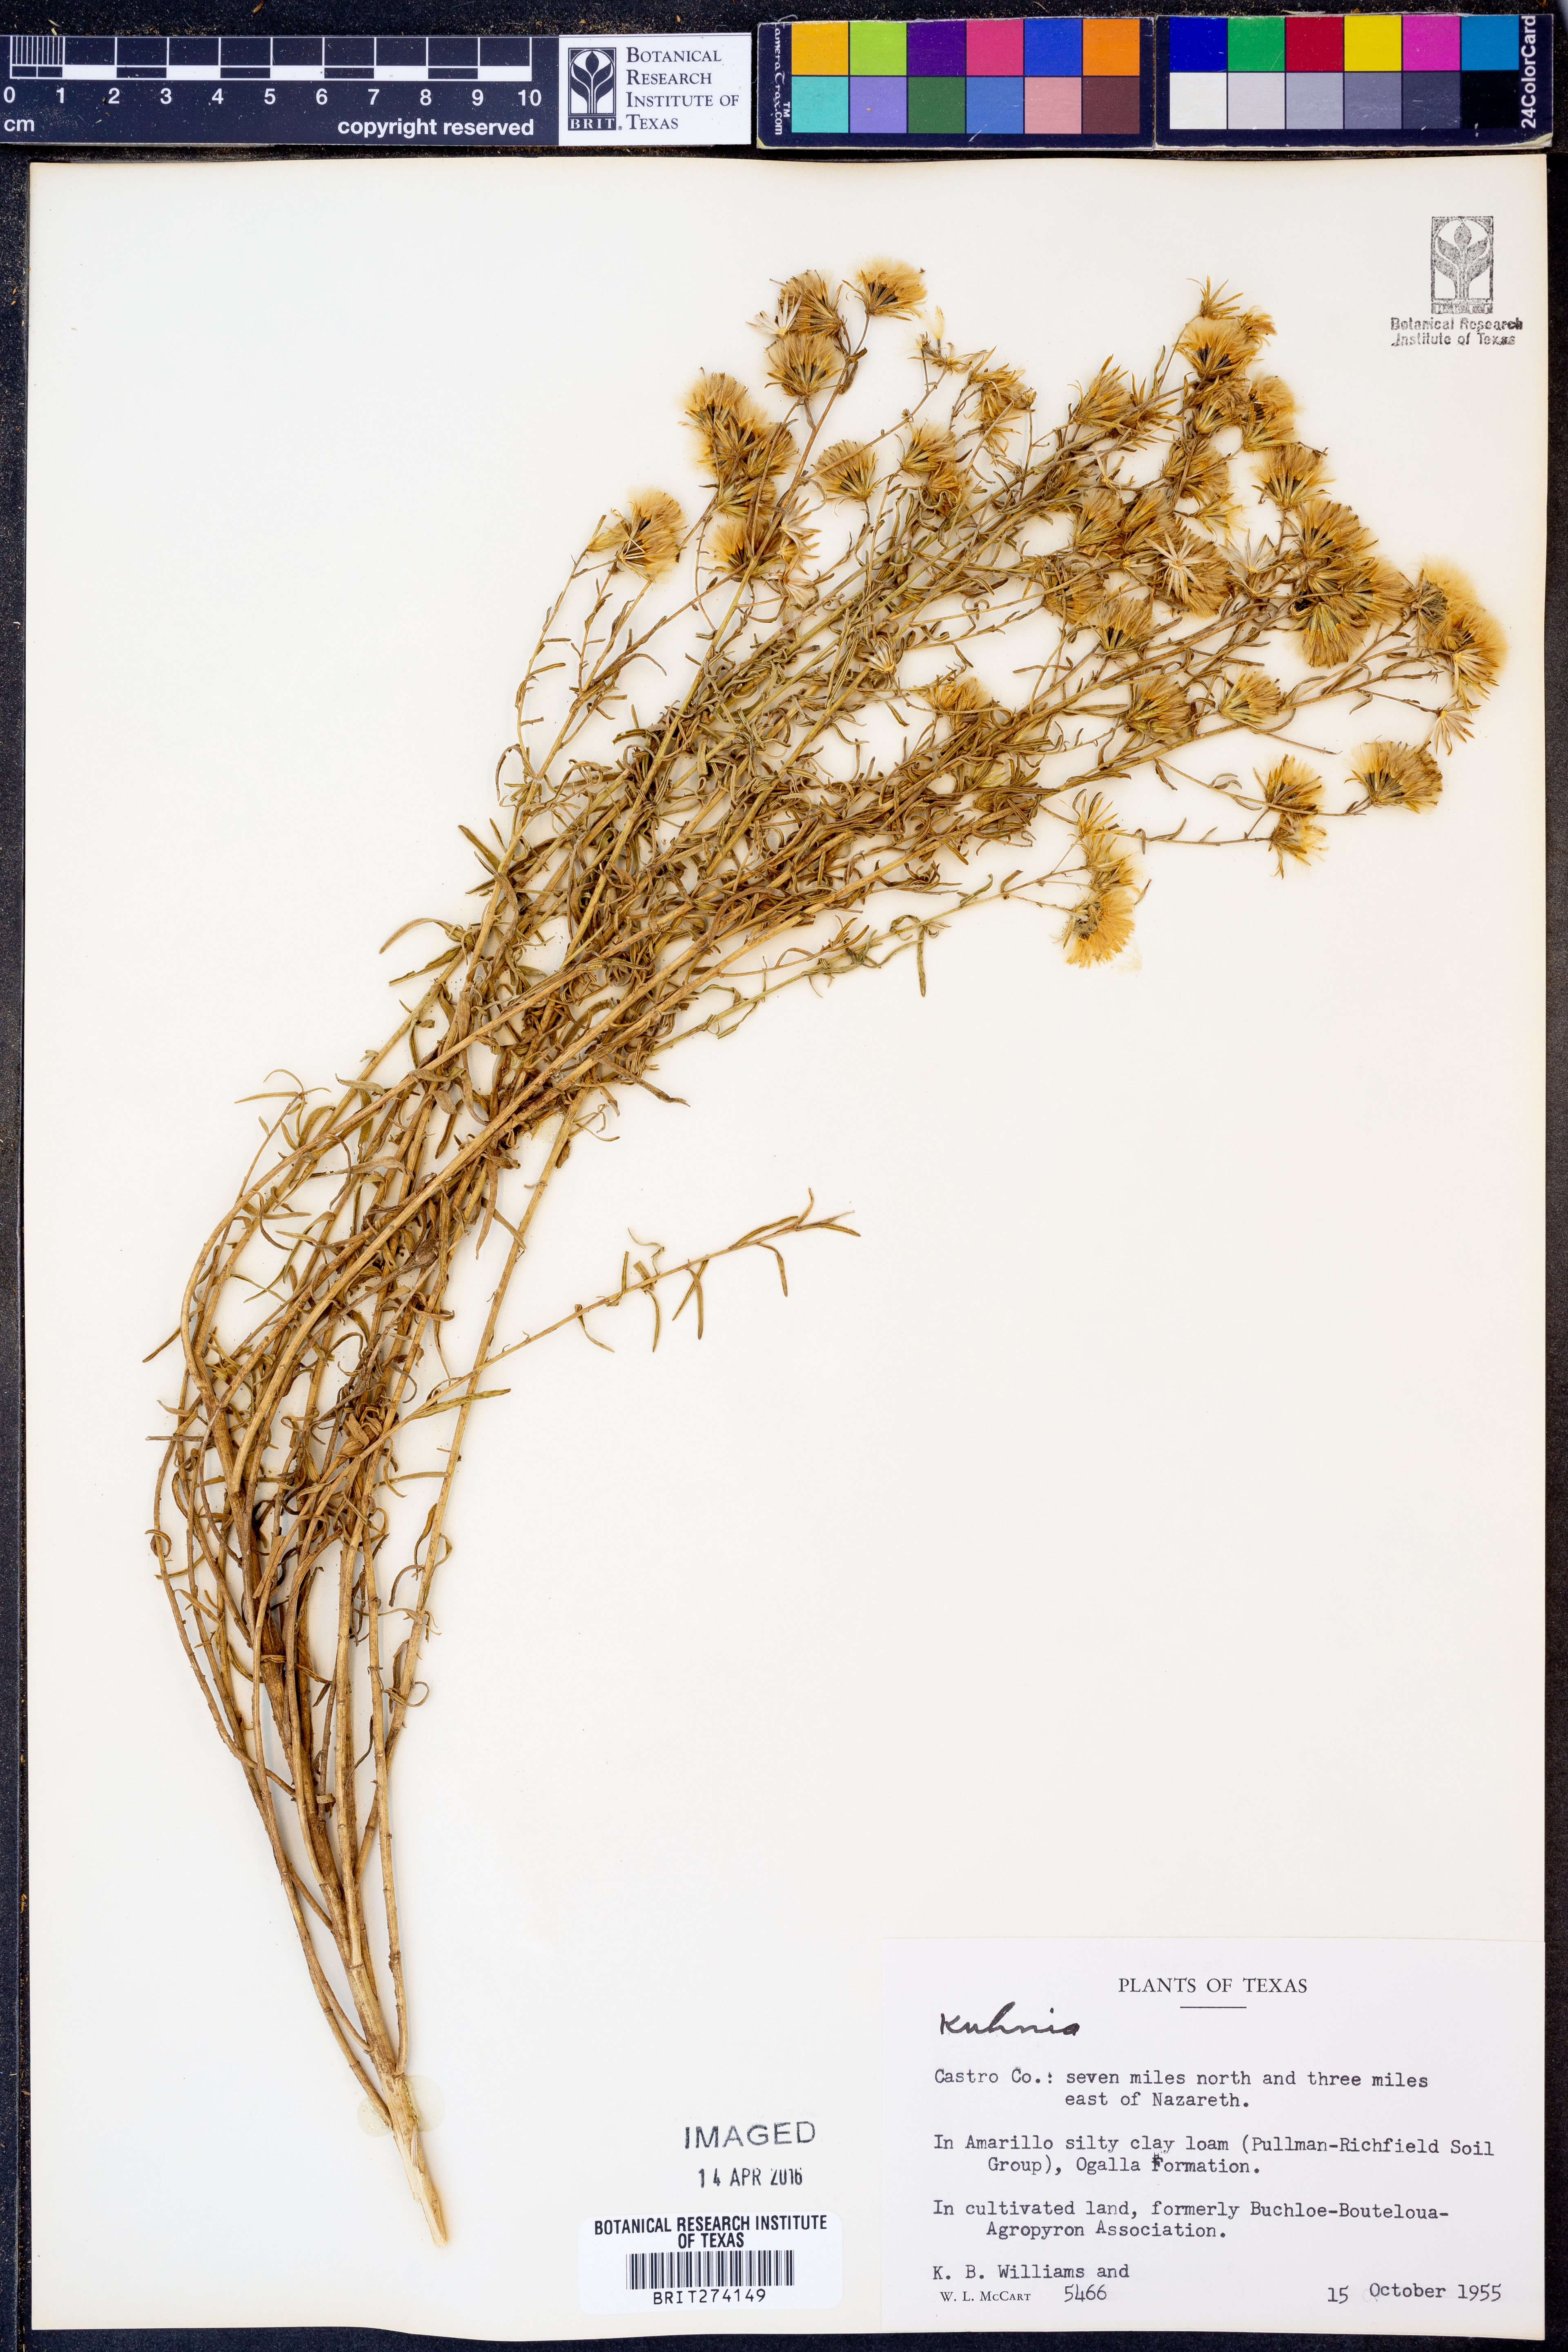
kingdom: Animalia
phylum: Platyhelminthes
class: Monogenea
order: Mazocraeidea
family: Mazocraeidae
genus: Kuhnia
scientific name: Kuhnia
